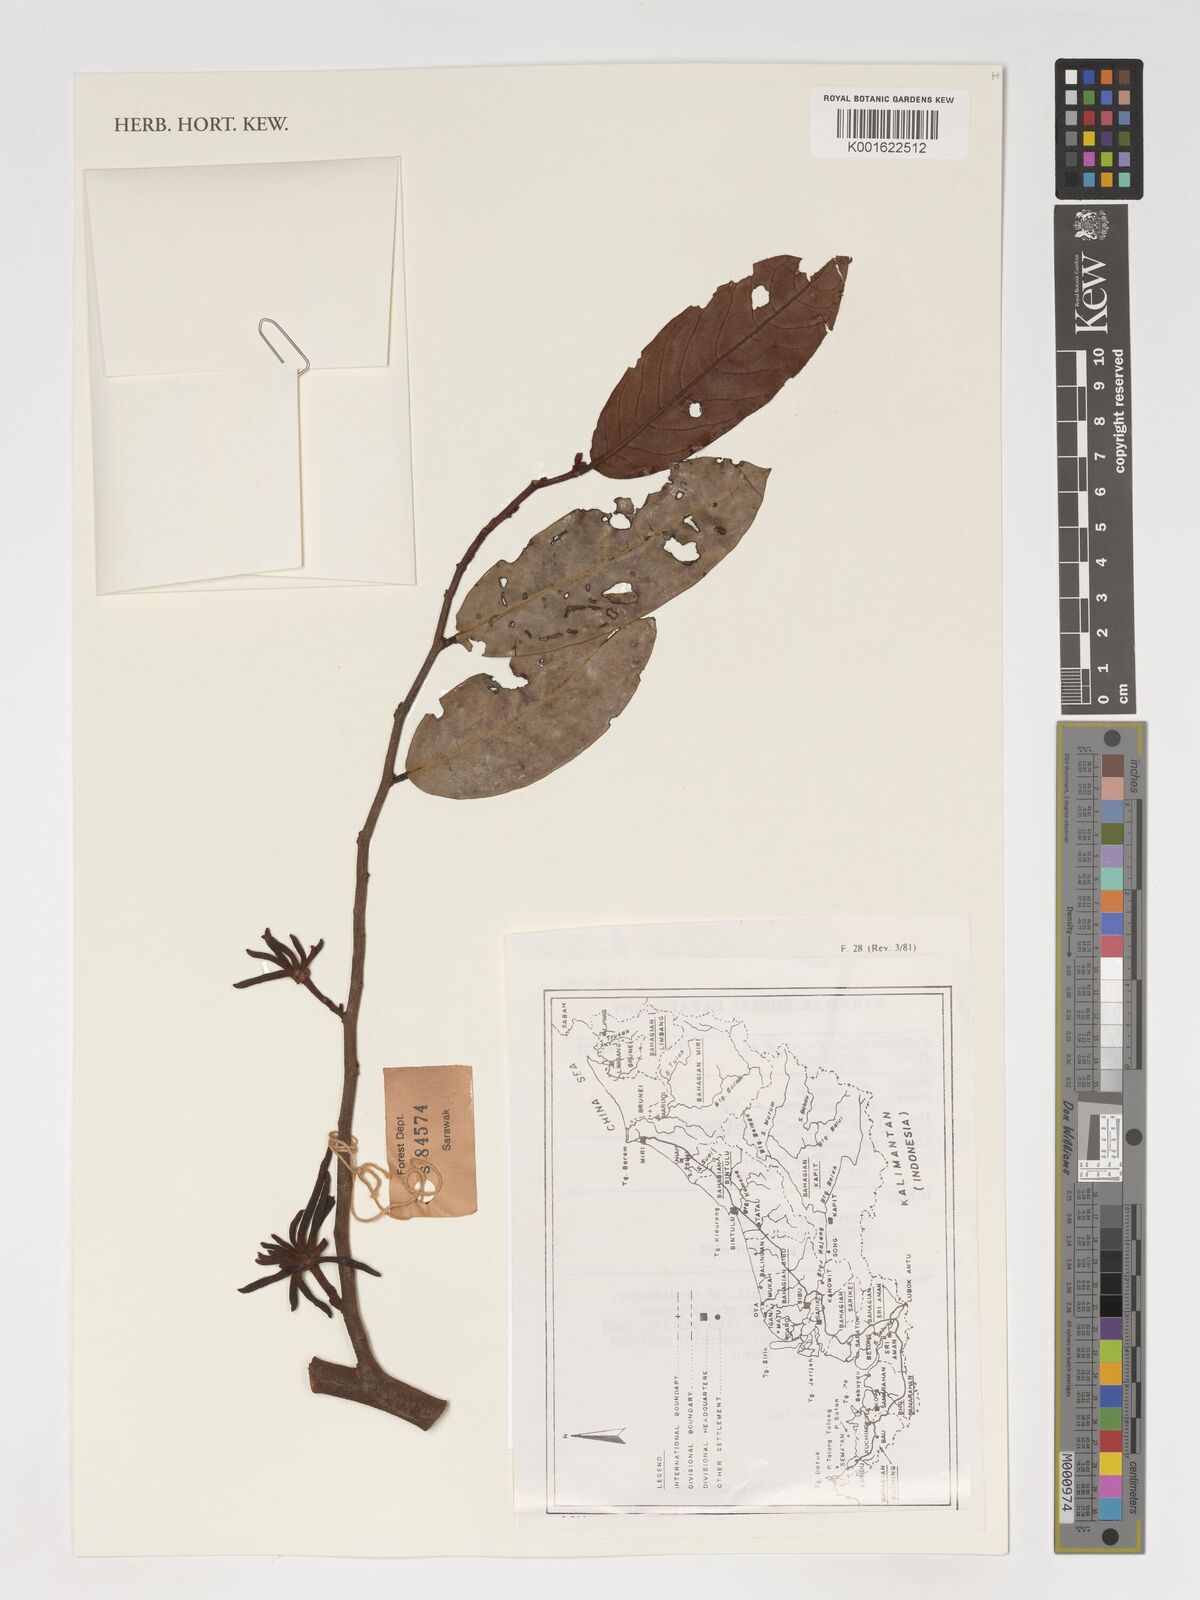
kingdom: Plantae
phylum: Tracheophyta
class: Magnoliopsida
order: Magnoliales
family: Annonaceae
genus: Drepananthus
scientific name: Drepananthus
